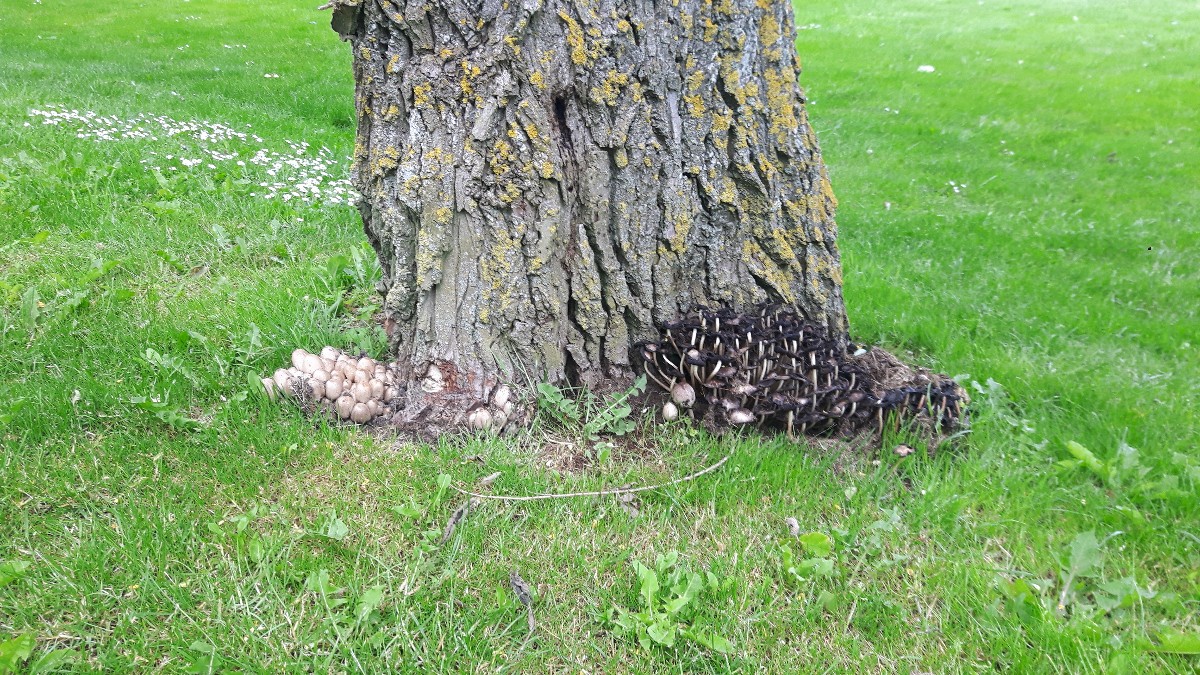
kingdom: Fungi
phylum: Basidiomycota
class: Agaricomycetes
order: Agaricales
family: Psathyrellaceae
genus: Coprinopsis
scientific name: Coprinopsis atramentaria
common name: almindelig blækhat
